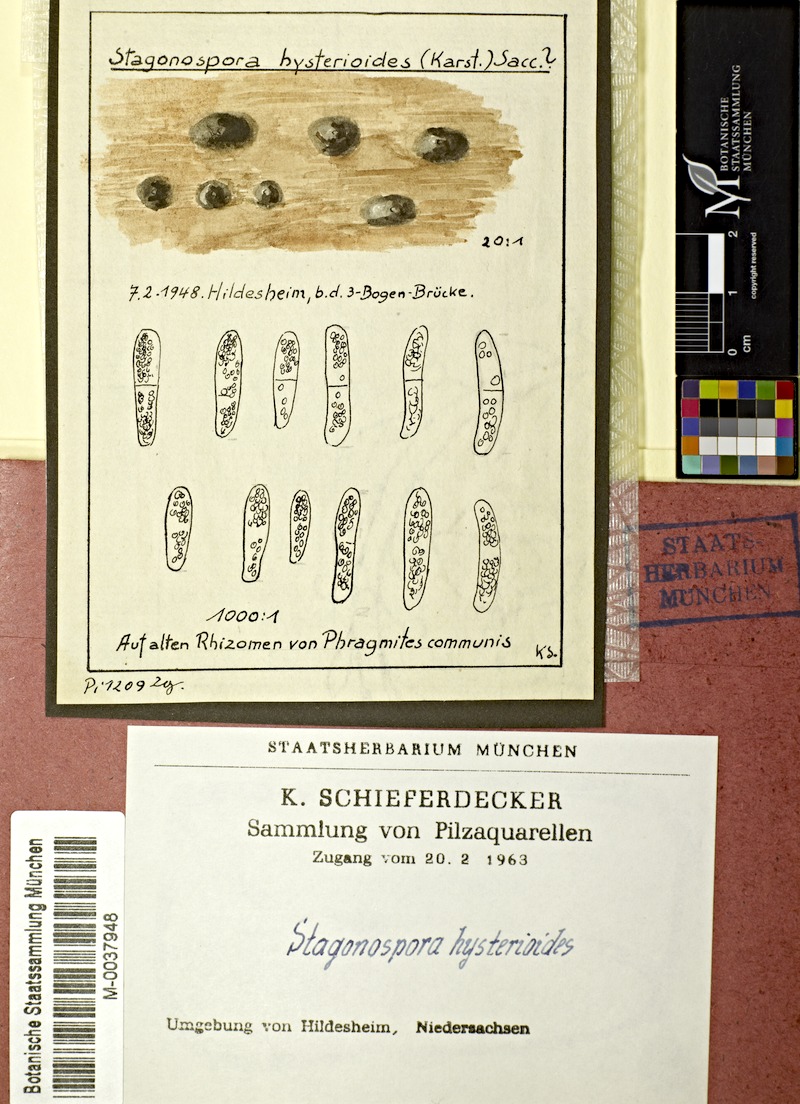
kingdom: Fungi
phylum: Ascomycota
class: Dothideomycetes
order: Pleosporales
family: Phaeosphaeriaceae
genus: Stagonospora
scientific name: Stagonospora hysterioides
